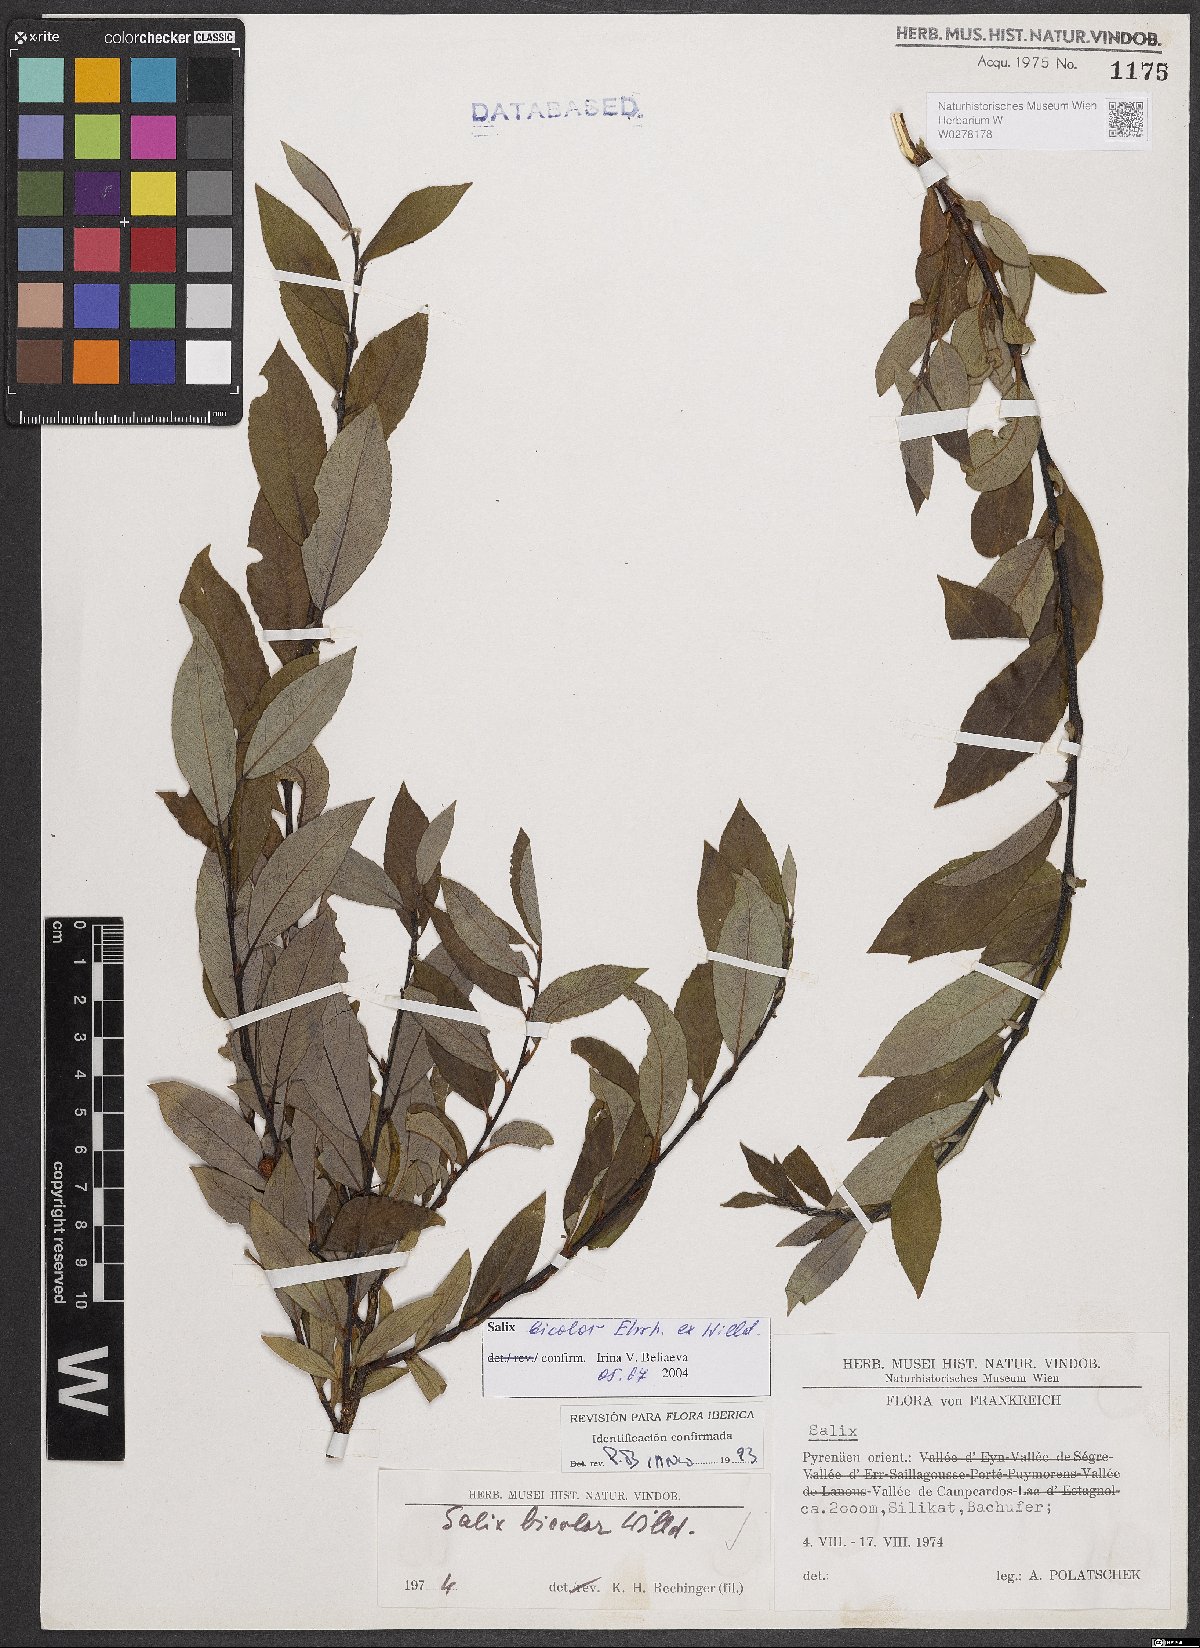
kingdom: Plantae
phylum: Tracheophyta
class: Magnoliopsida
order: Malpighiales
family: Salicaceae
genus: Salix
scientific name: Salix bicolor
